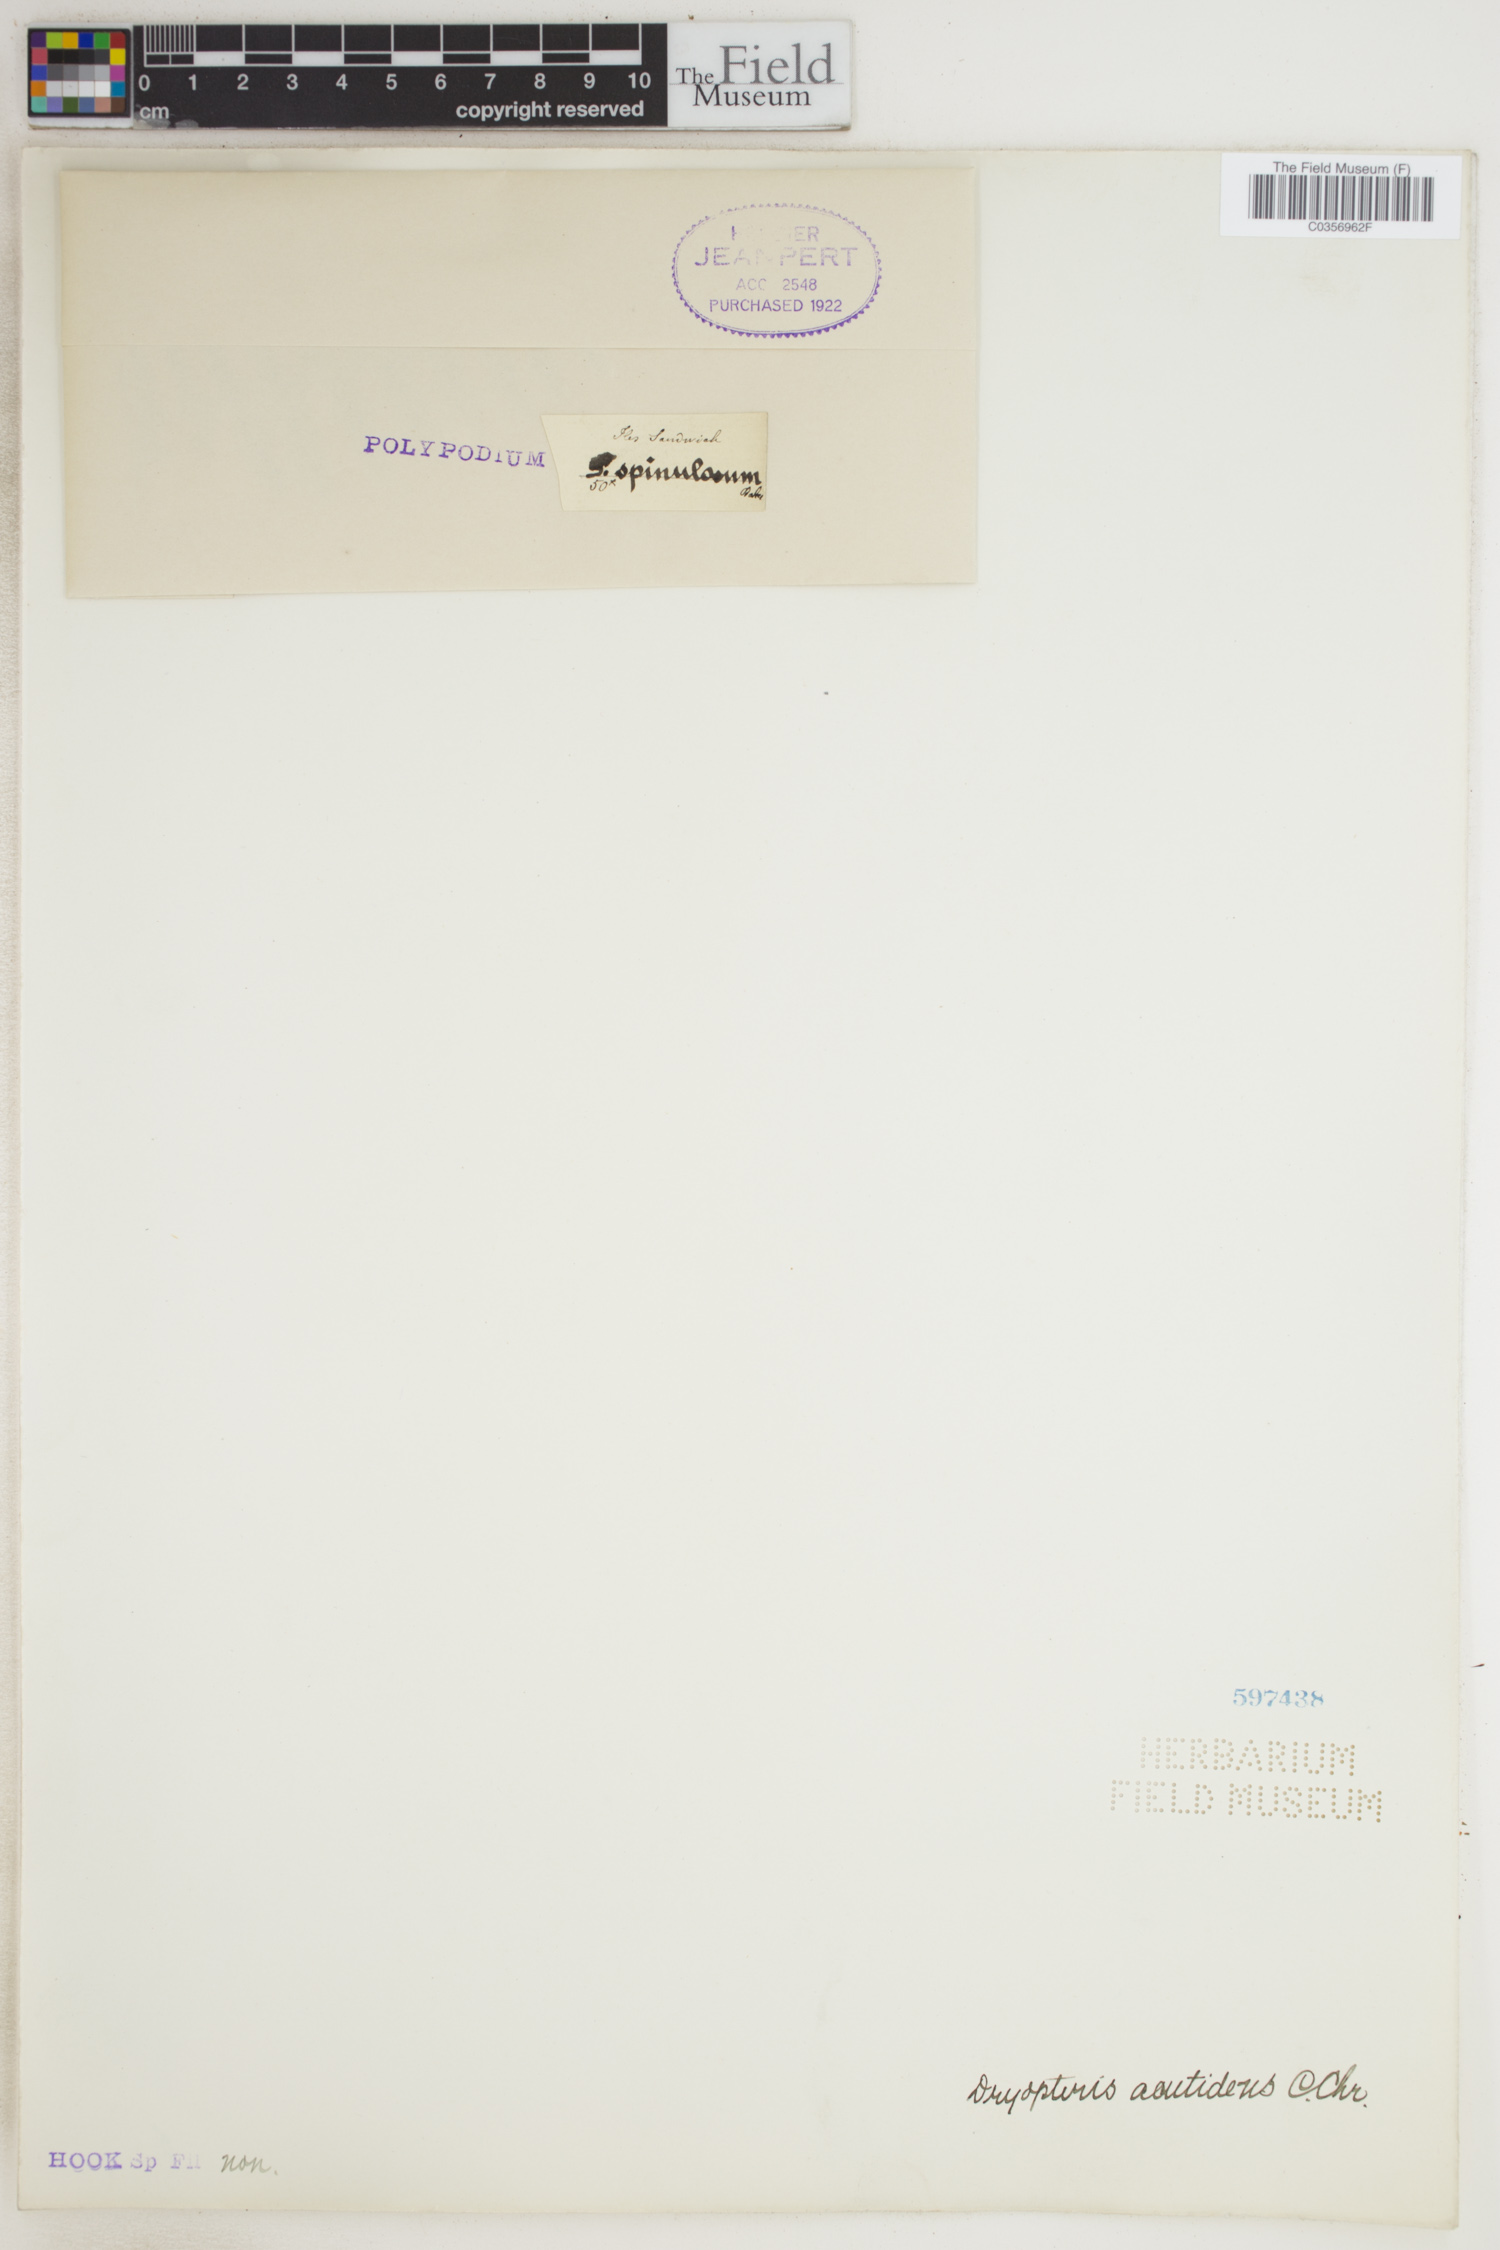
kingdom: Plantae
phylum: Tracheophyta
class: Polypodiopsida
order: Polypodiales
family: Dryopteridaceae
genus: Dryopteris
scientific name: Dryopteris unidentata
